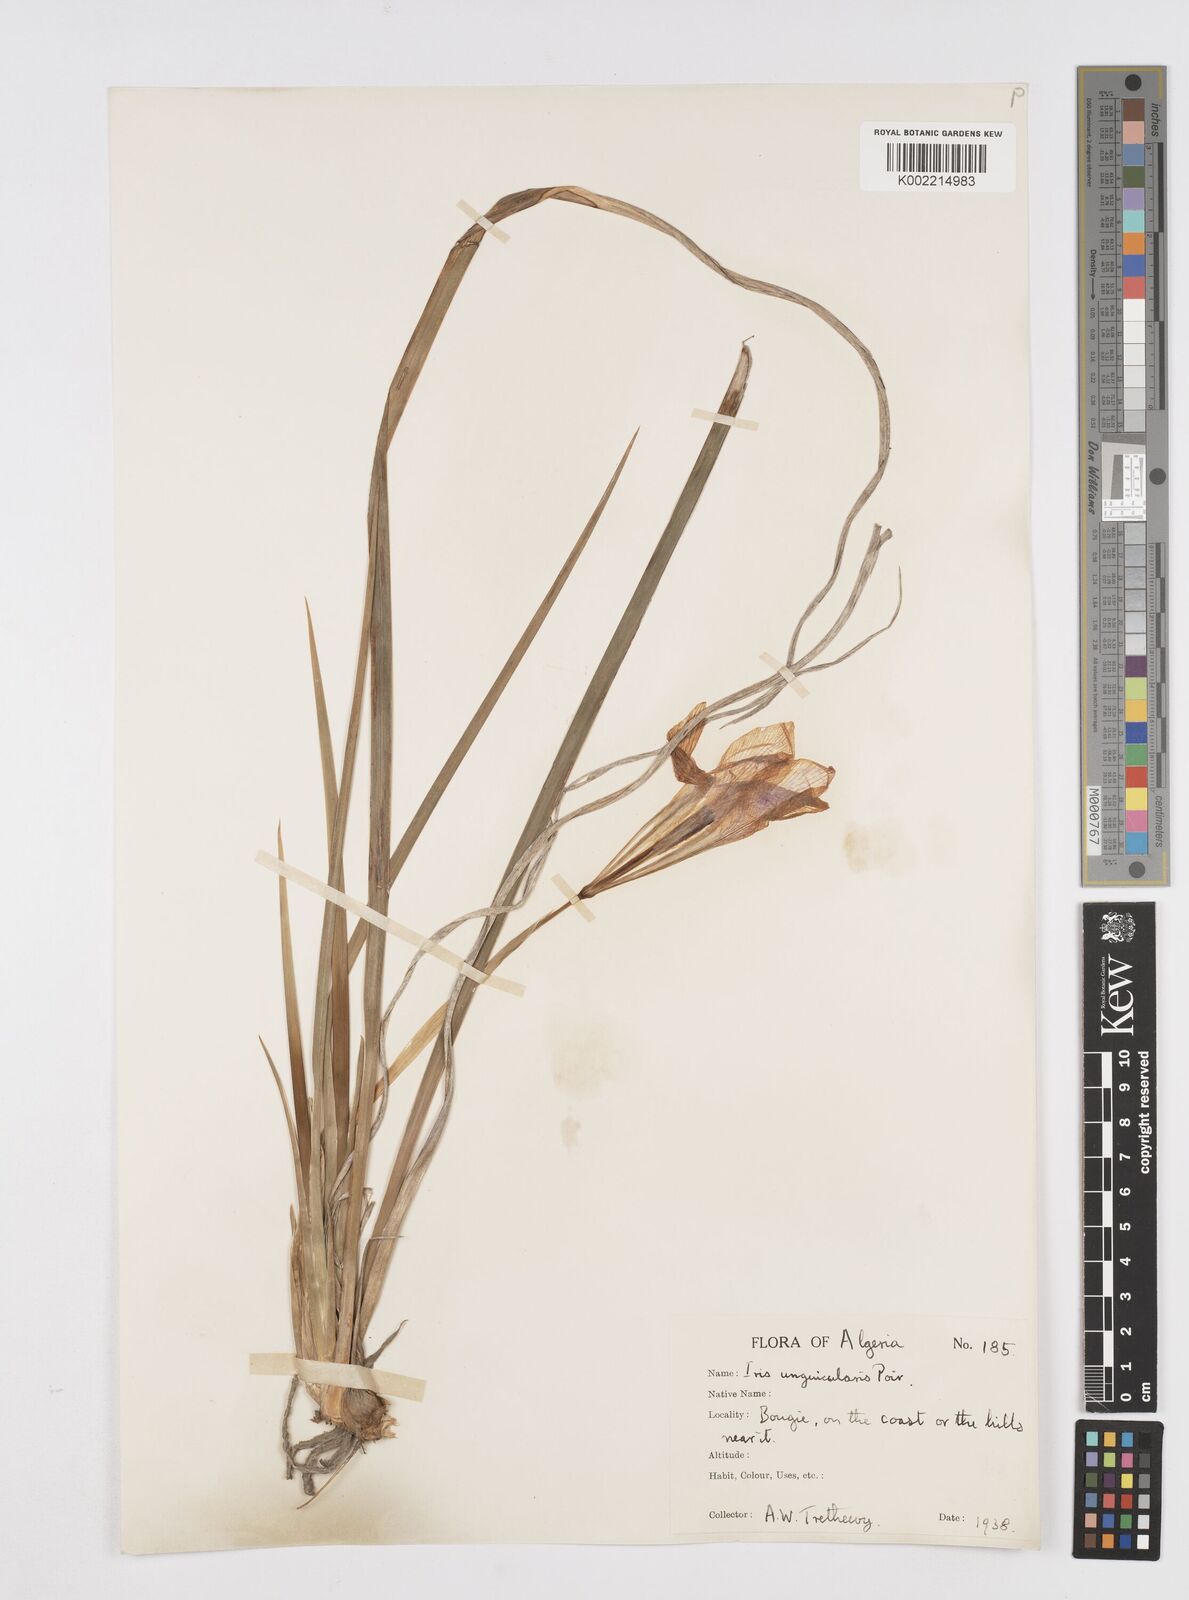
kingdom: Plantae
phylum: Tracheophyta
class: Liliopsida
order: Asparagales
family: Iridaceae
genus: Iris
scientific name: Iris unguicularis
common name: Algerian iris
